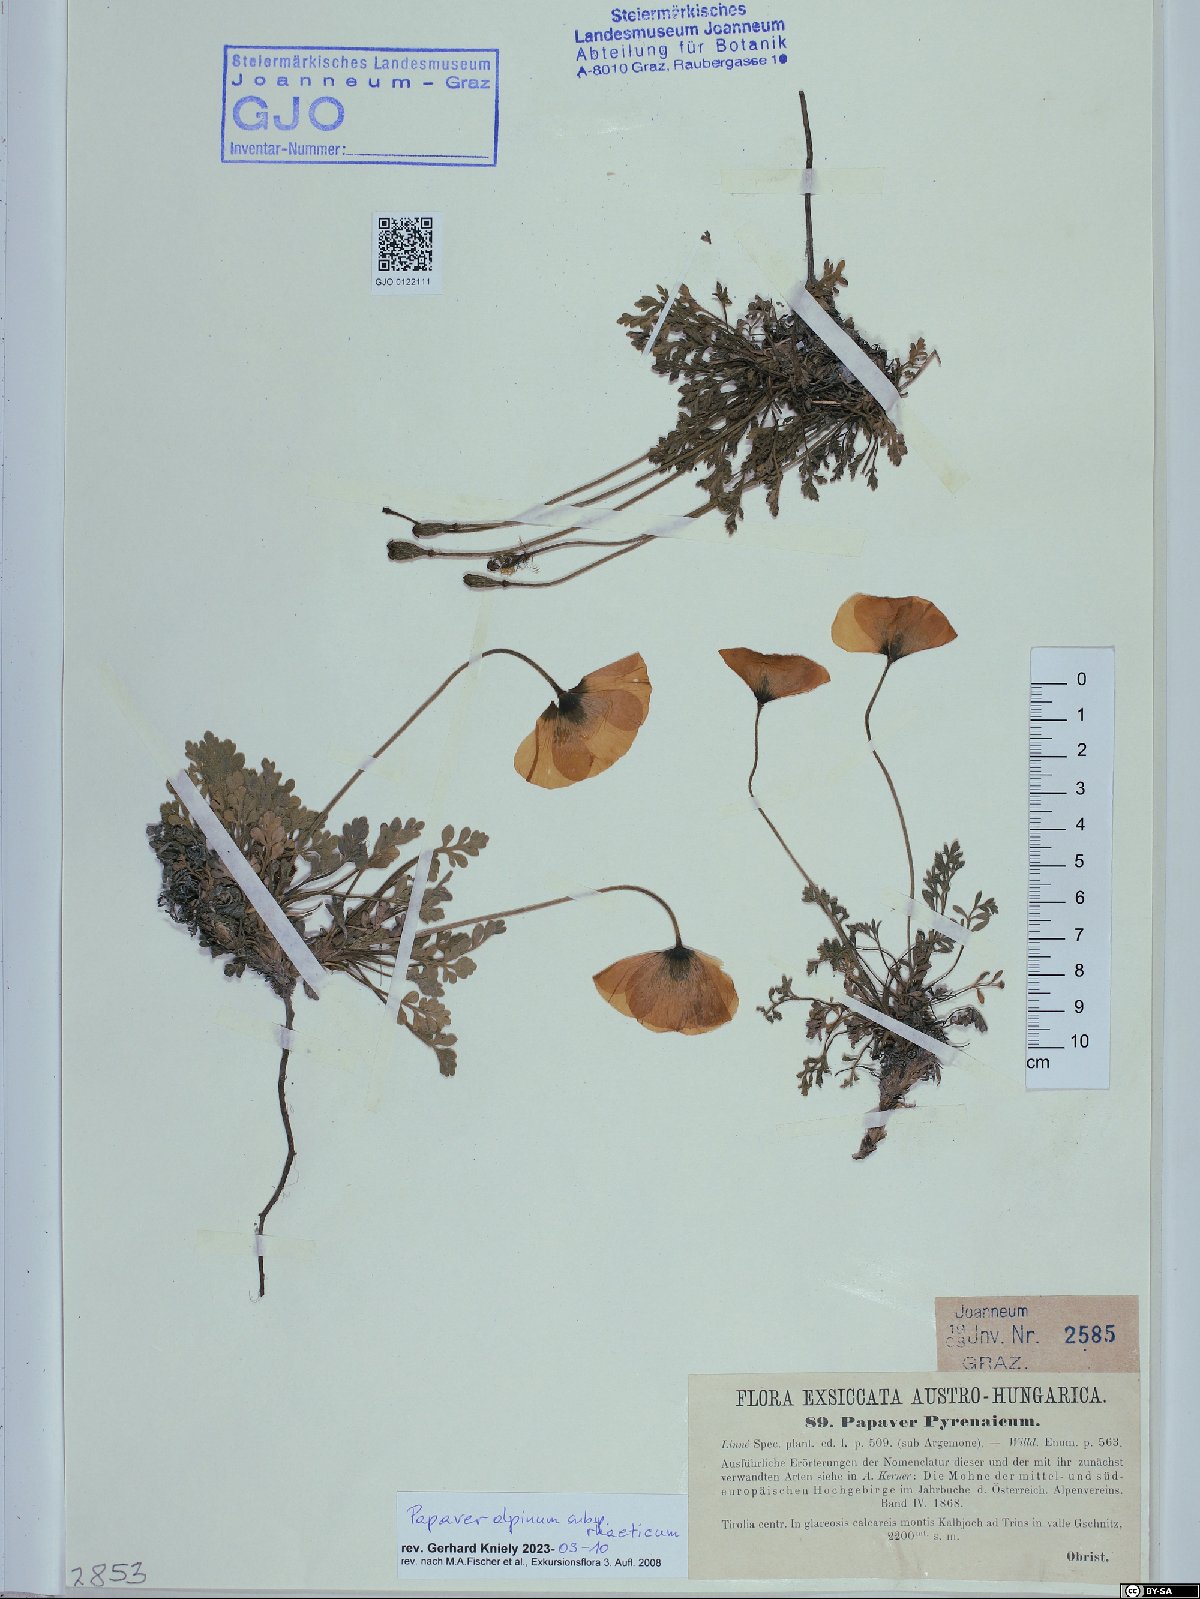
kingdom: Plantae
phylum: Tracheophyta
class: Magnoliopsida
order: Ranunculales
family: Papaveraceae
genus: Papaver
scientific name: Papaver alpinum
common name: Austrian poppy
